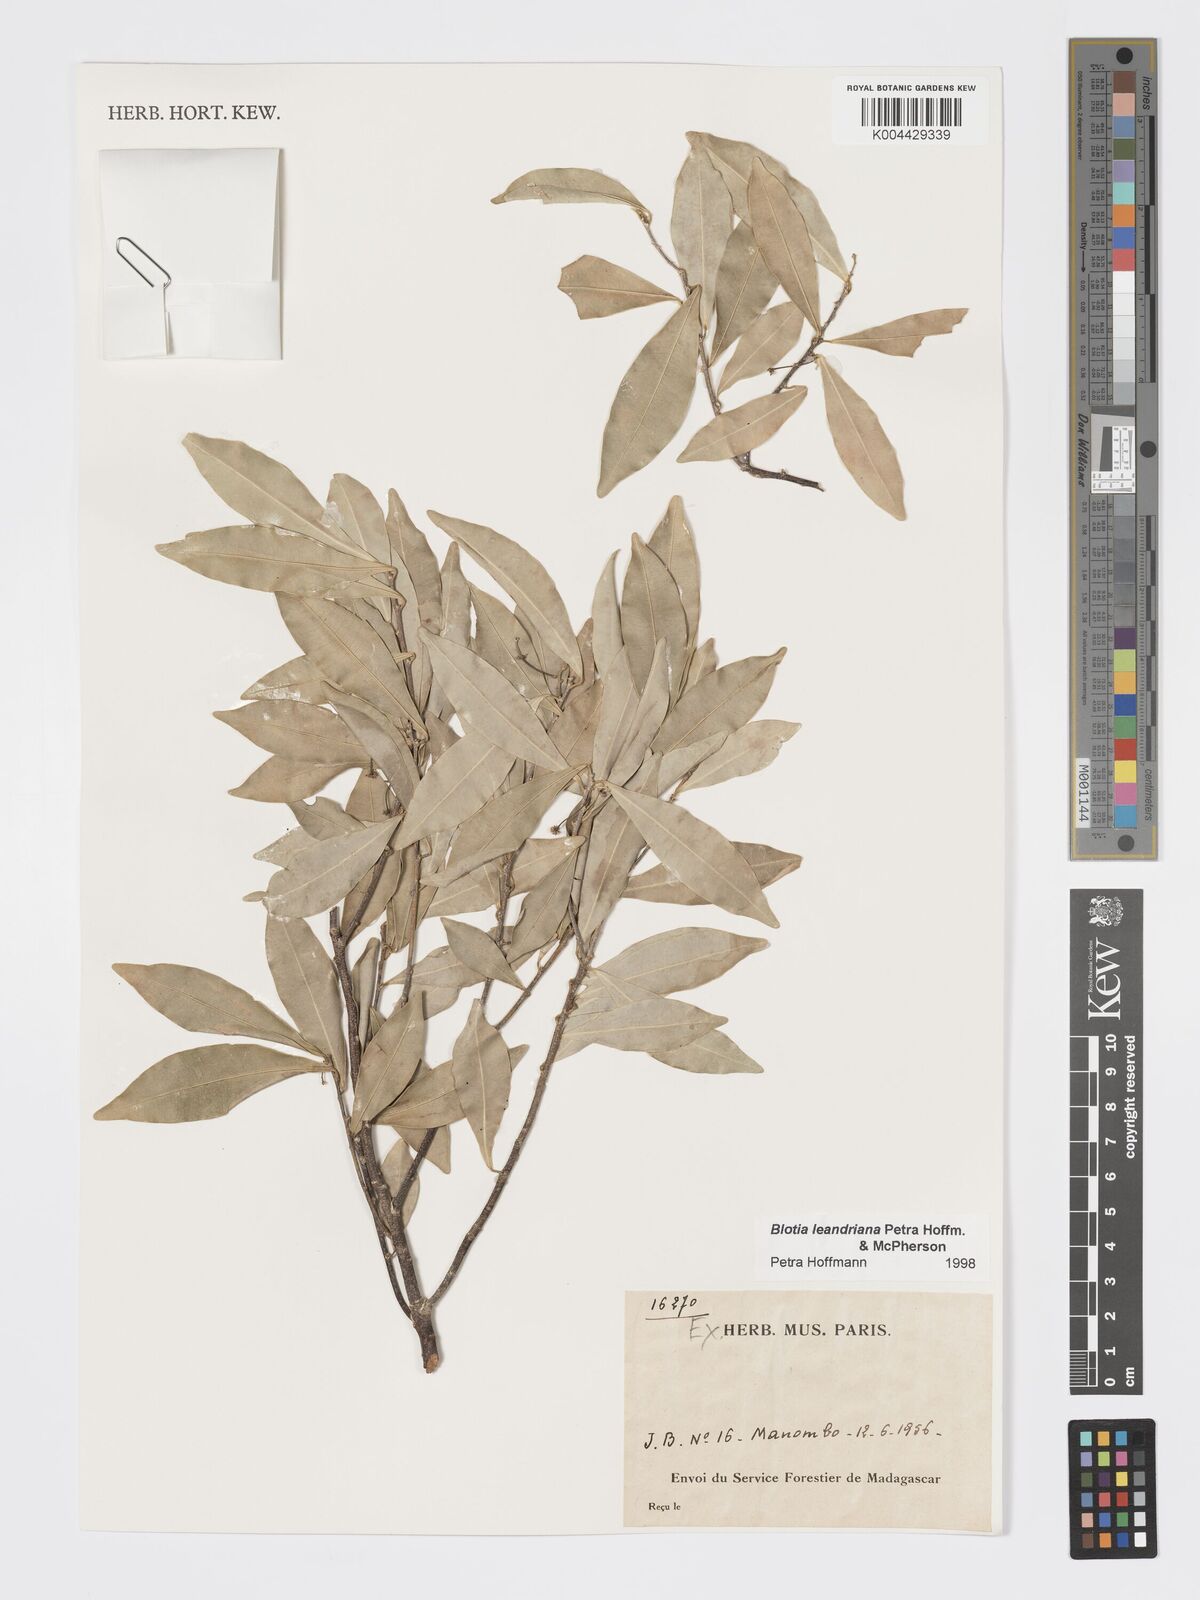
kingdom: Plantae
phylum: Tracheophyta
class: Magnoliopsida
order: Malpighiales
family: Phyllanthaceae
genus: Wielandia
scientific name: Wielandia leandriana
